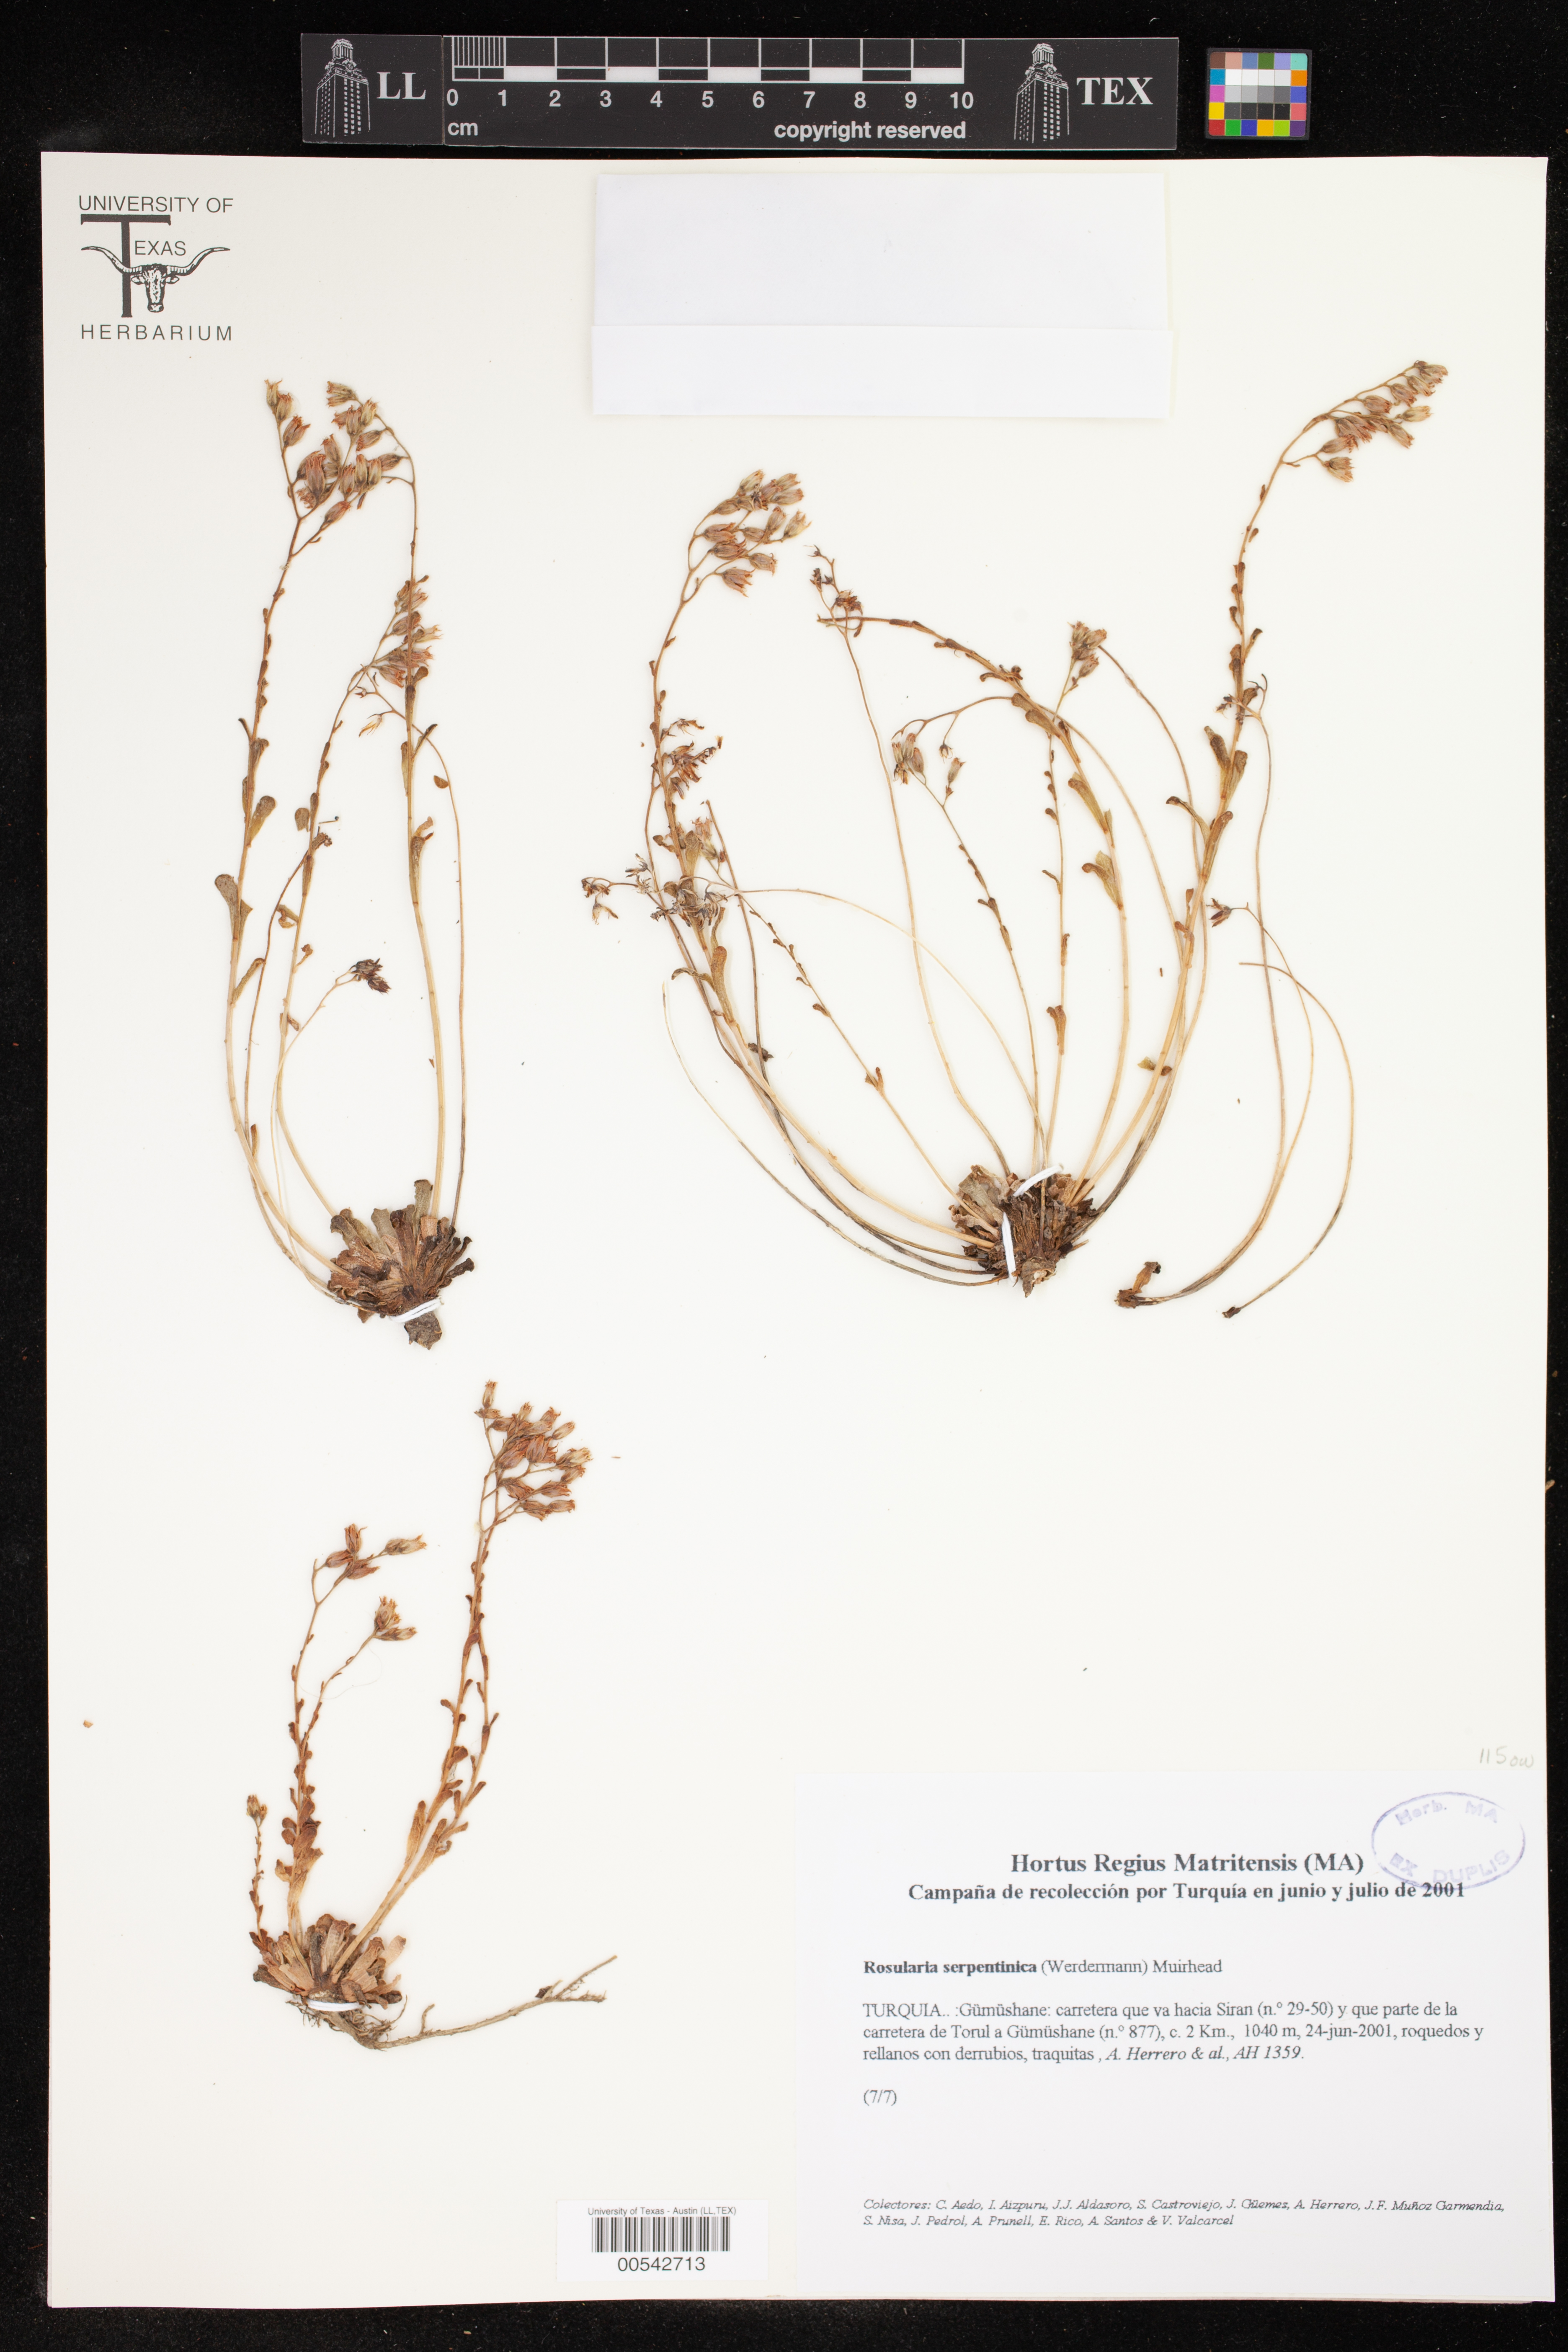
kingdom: Plantae
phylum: Tracheophyta
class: Magnoliopsida
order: Saxifragales
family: Crassulaceae
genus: Prometheum
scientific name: Prometheum serpentinicum
